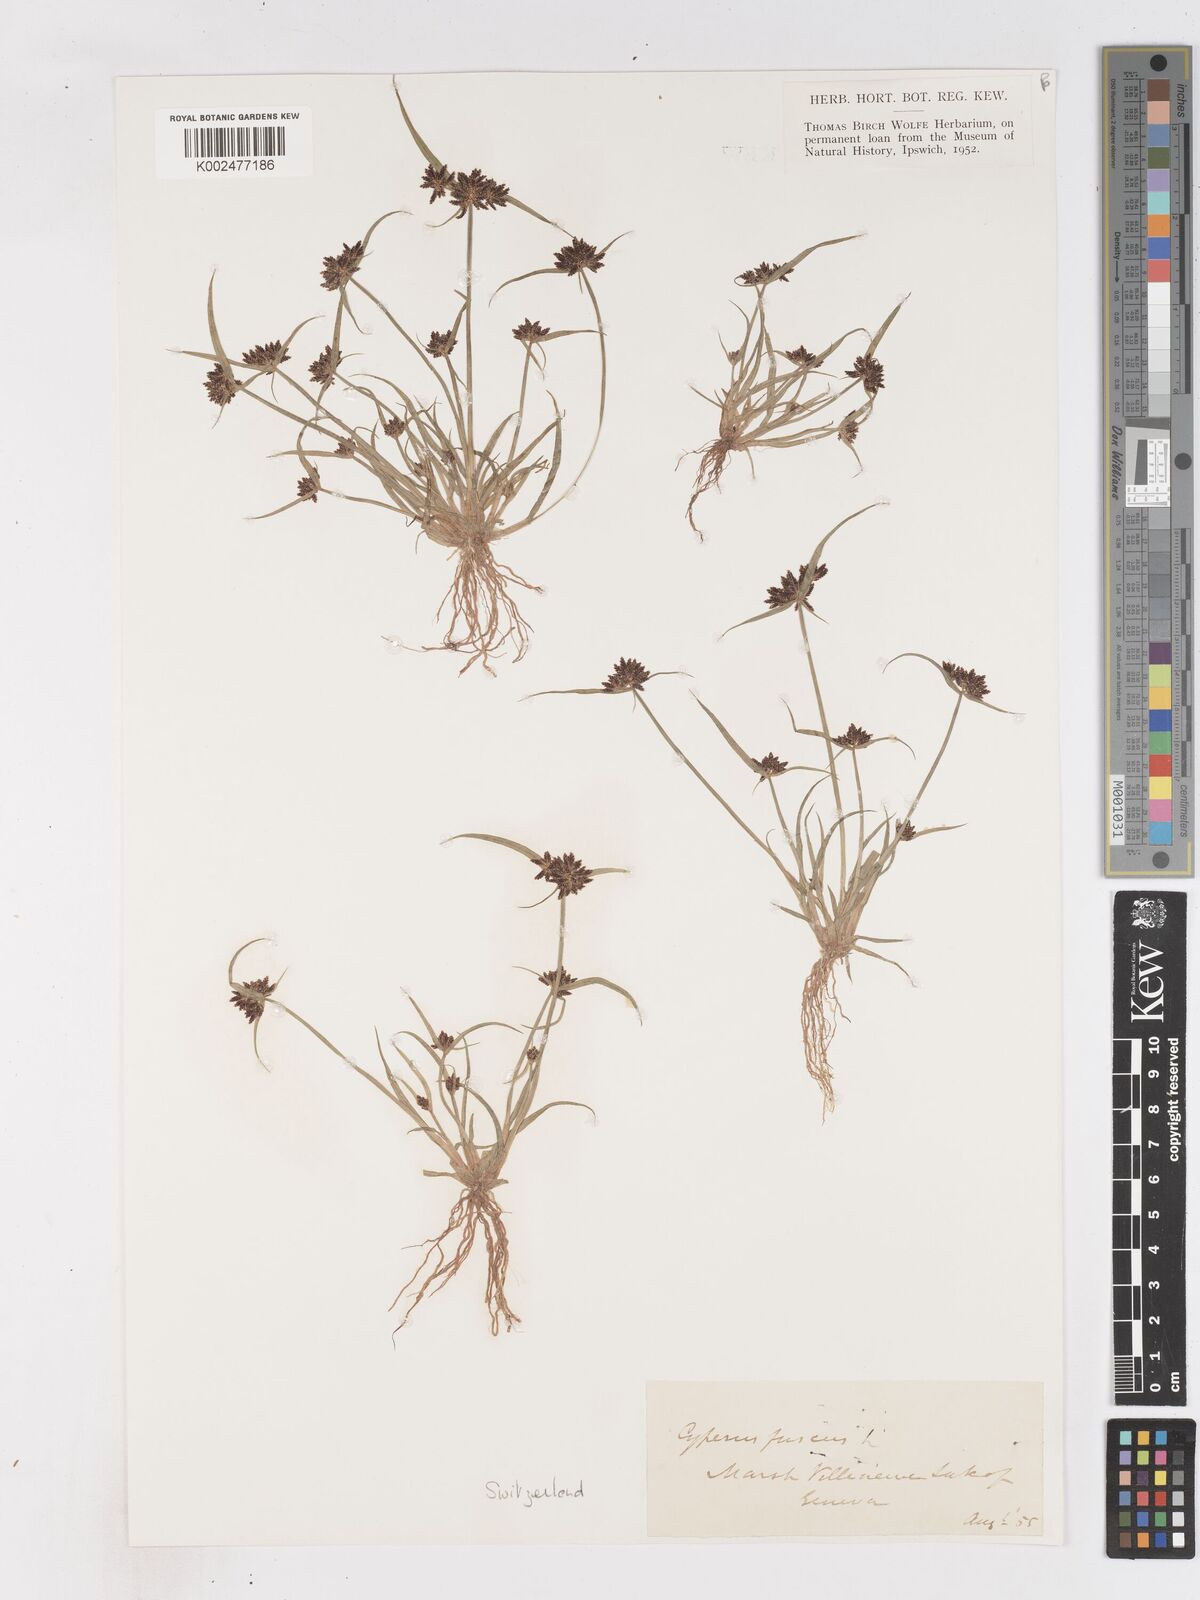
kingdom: Plantae
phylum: Tracheophyta
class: Liliopsida
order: Poales
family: Cyperaceae
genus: Cyperus
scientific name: Cyperus fuscus
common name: Brown galingale
